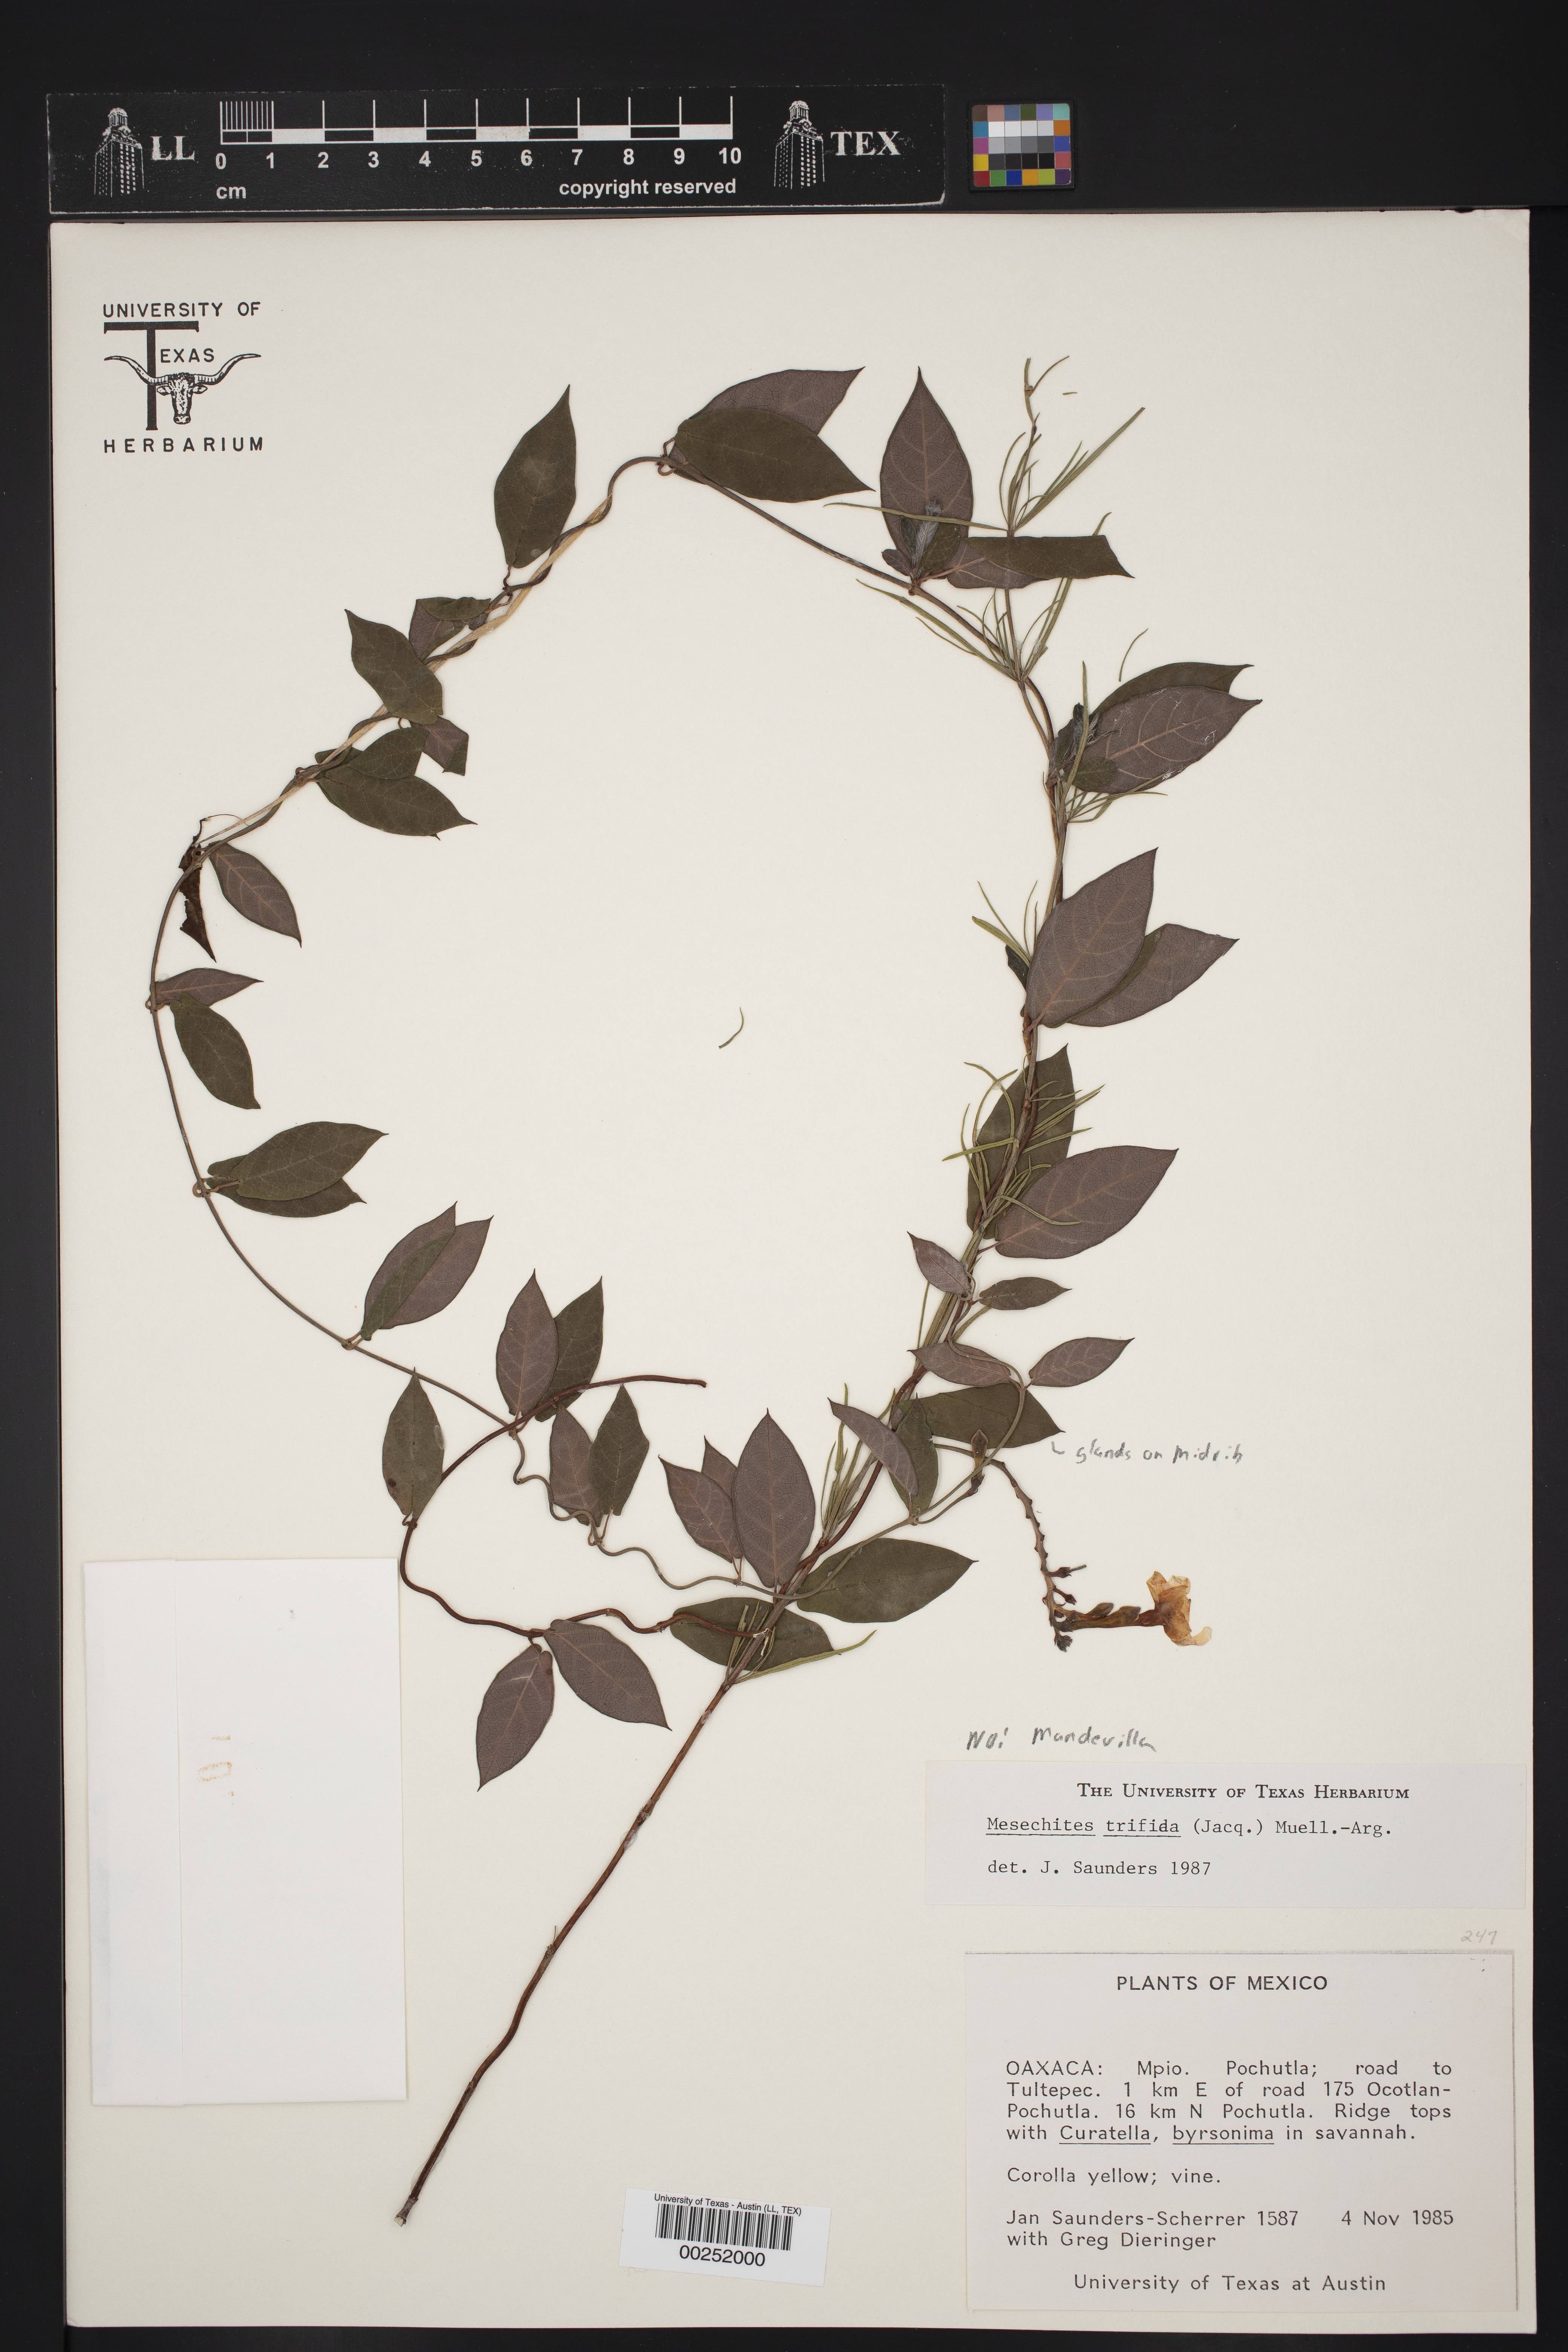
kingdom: Plantae
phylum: Tracheophyta
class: Magnoliopsida
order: Gentianales
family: Apocynaceae
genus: Mandevilla
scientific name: Mandevilla subsagittata
